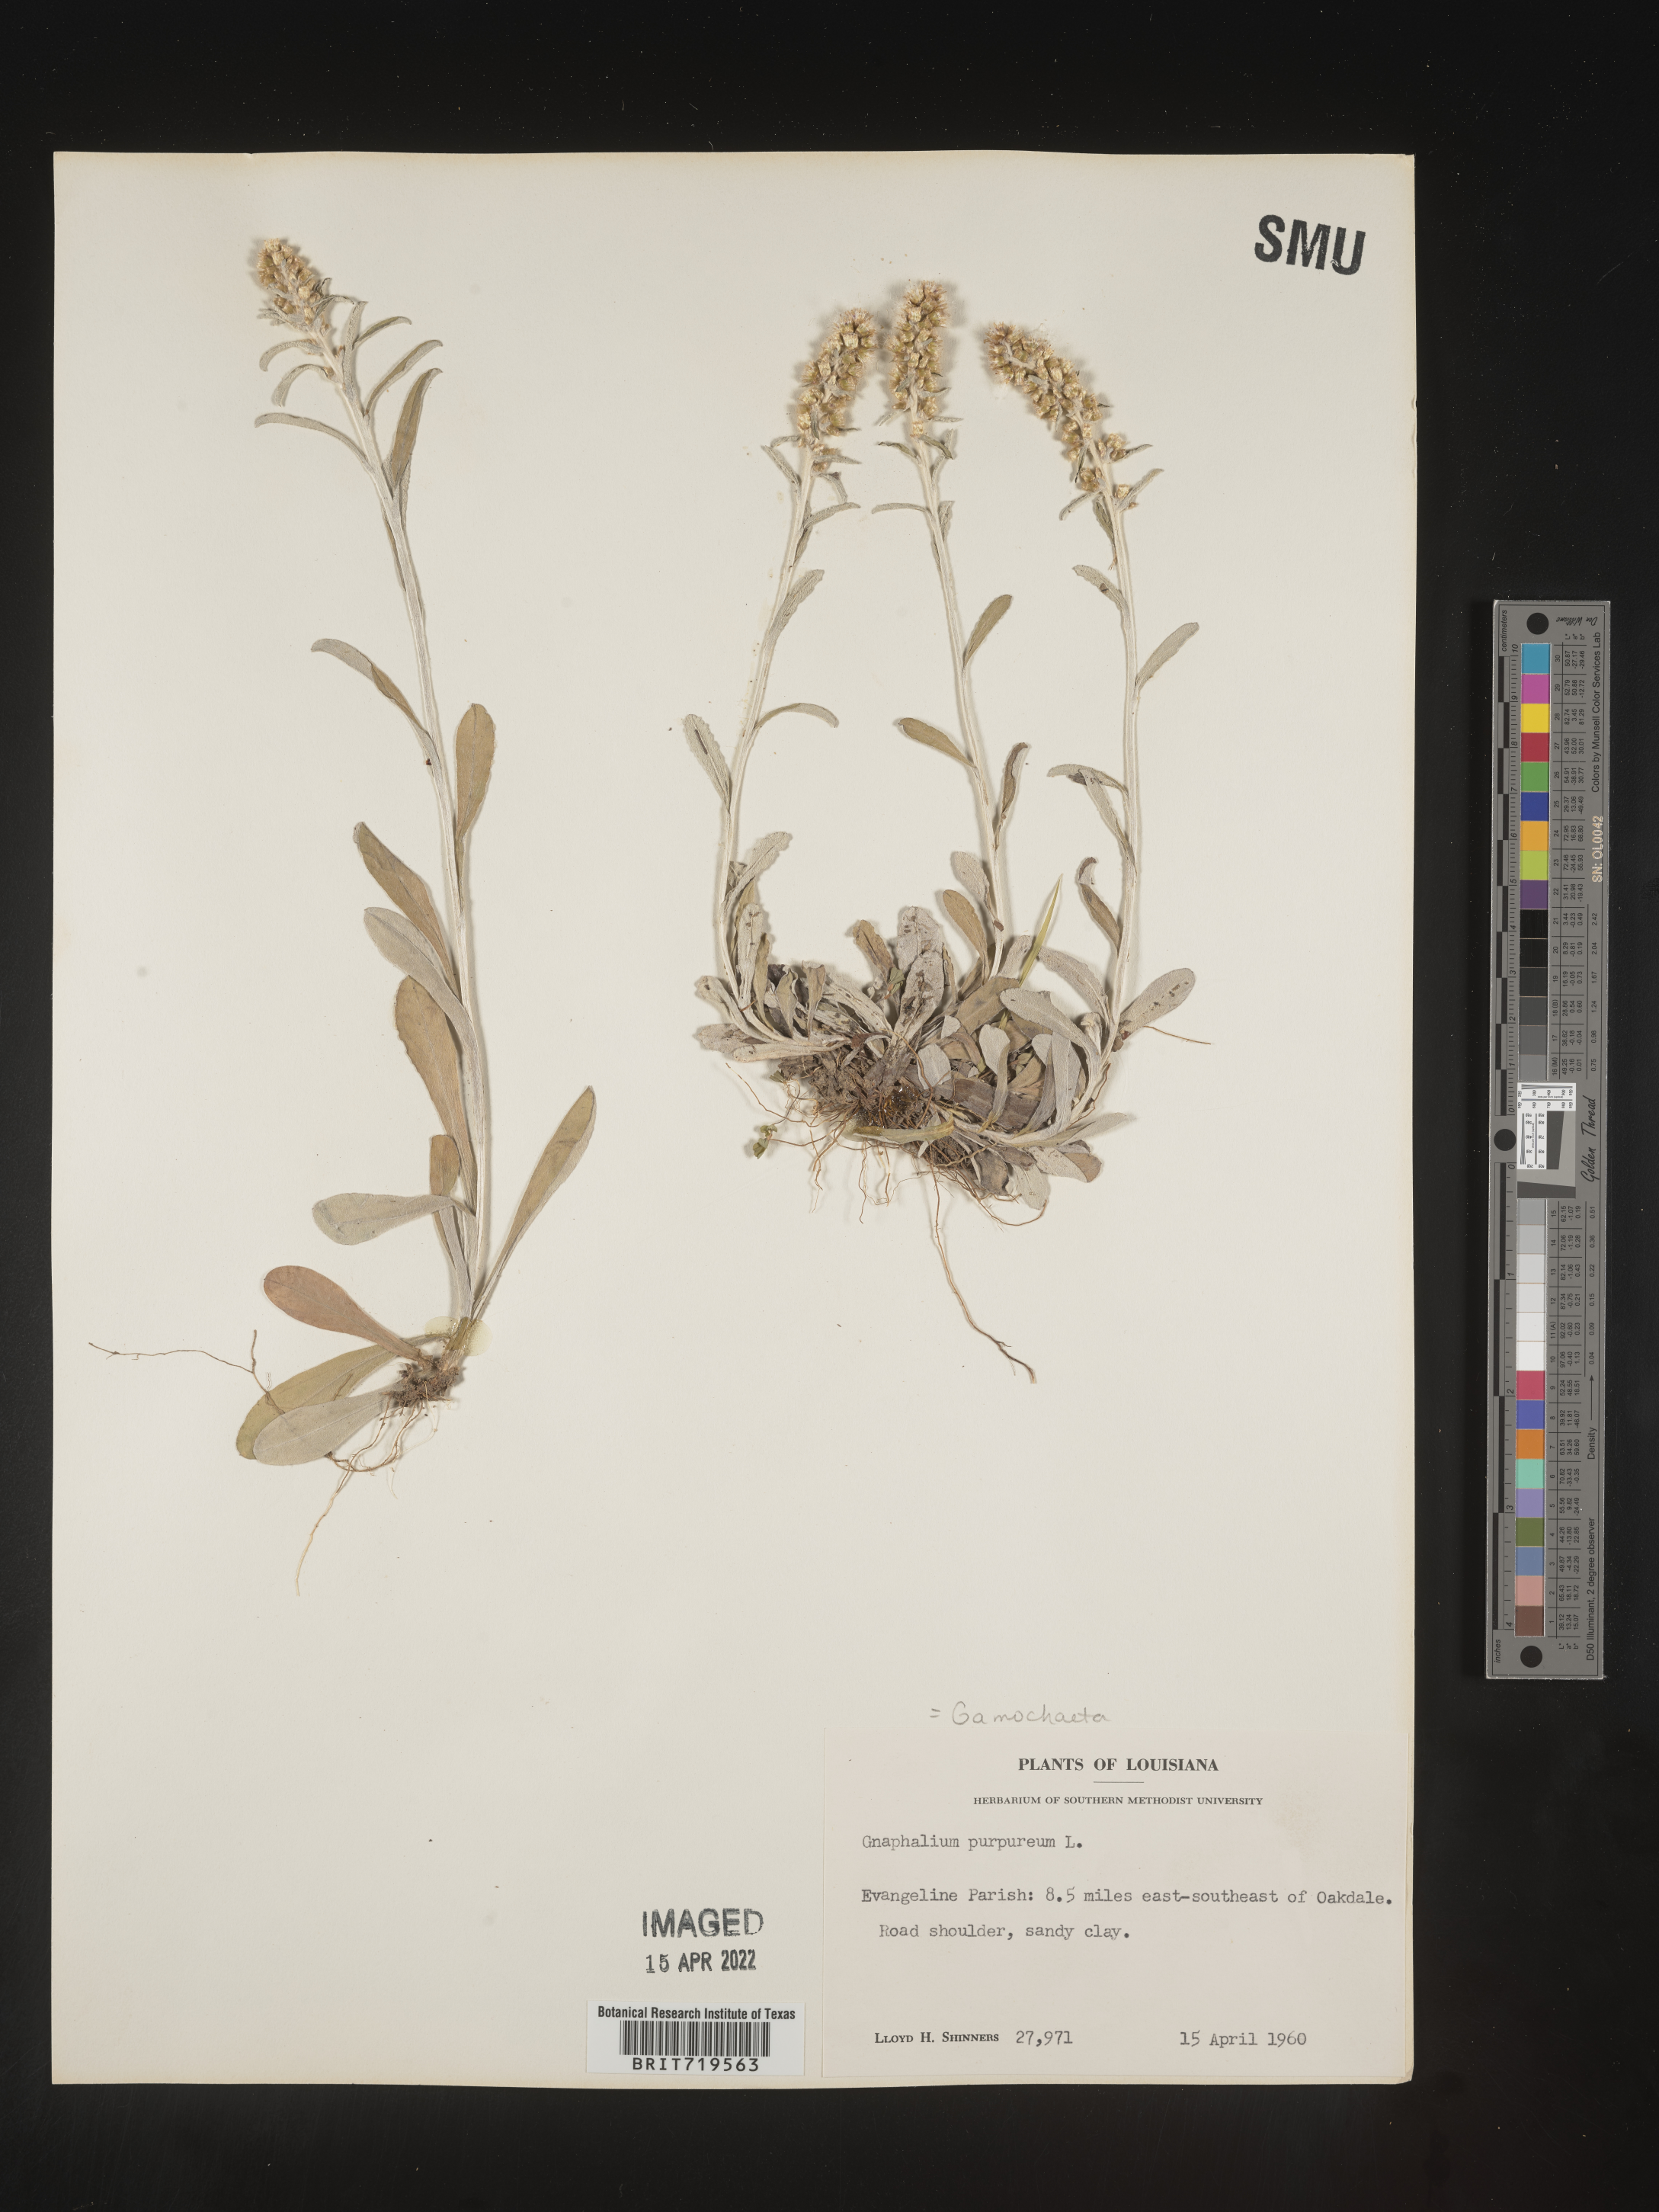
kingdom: Plantae
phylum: Tracheophyta
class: Magnoliopsida
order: Asterales
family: Asteraceae
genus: Gamochaeta
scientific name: Gamochaeta argyrinea
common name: Silvery cudweed
